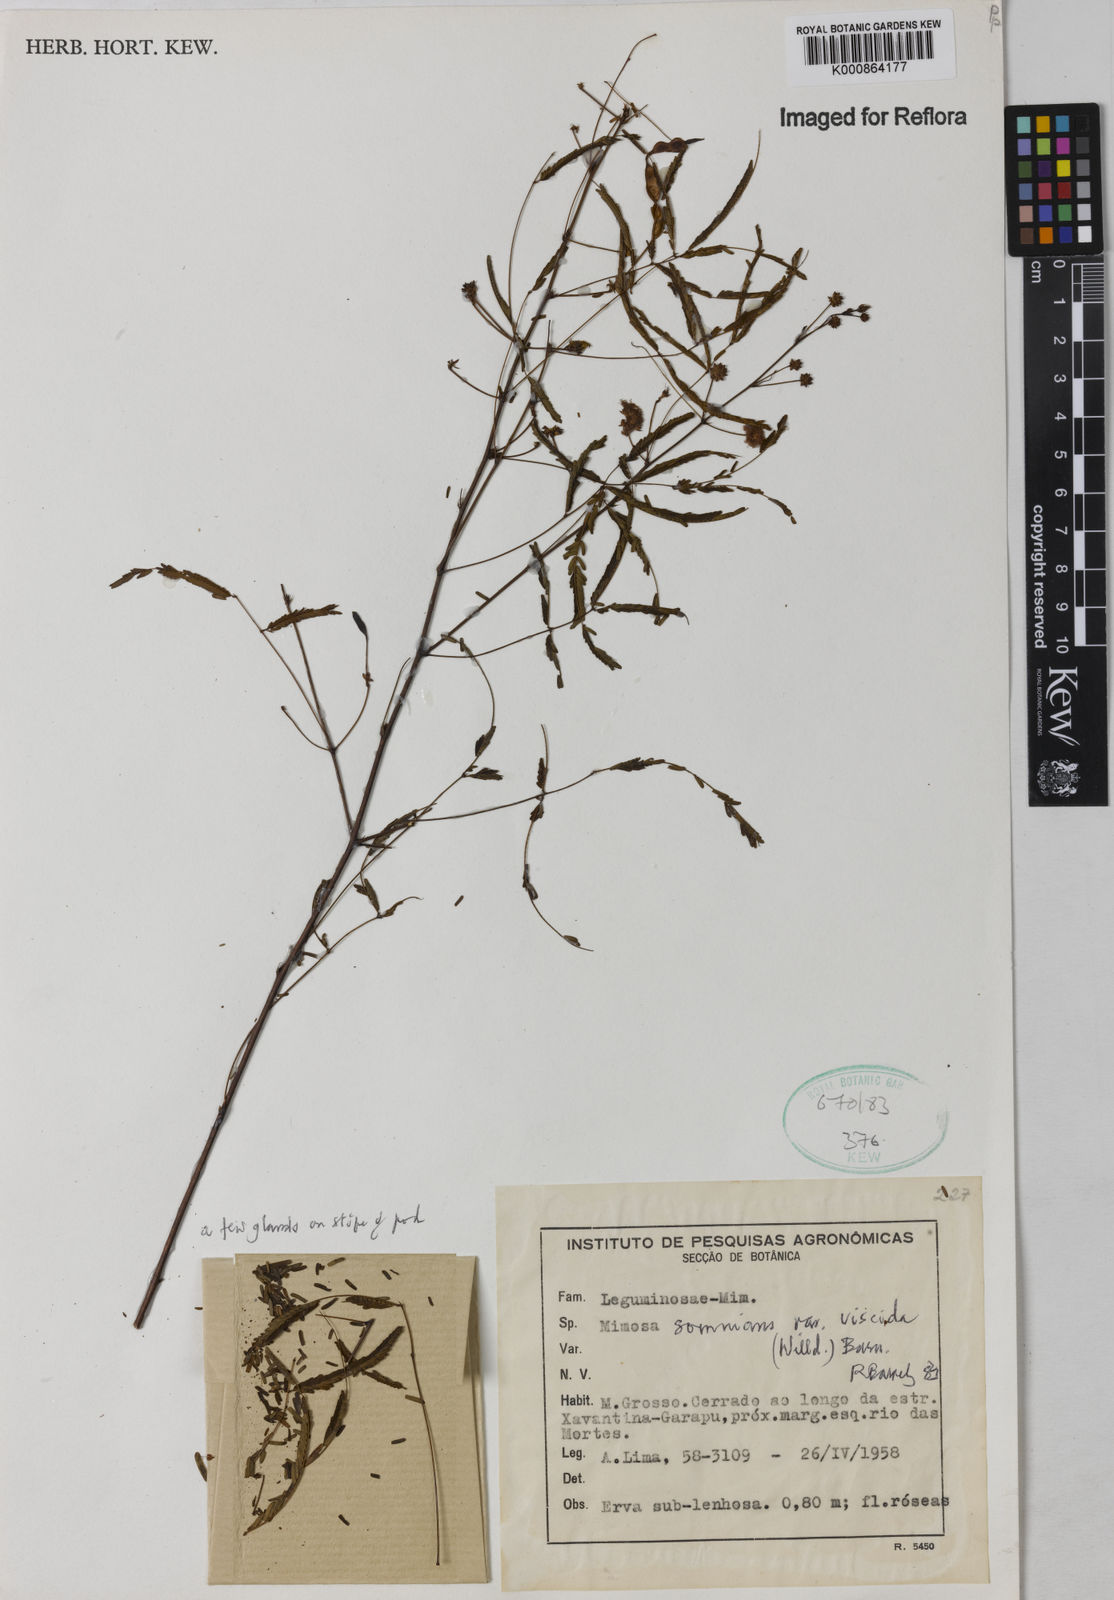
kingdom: Plantae
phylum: Tracheophyta
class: Magnoliopsida
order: Fabales
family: Fabaceae
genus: Mimosa
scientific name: Mimosa somnians
